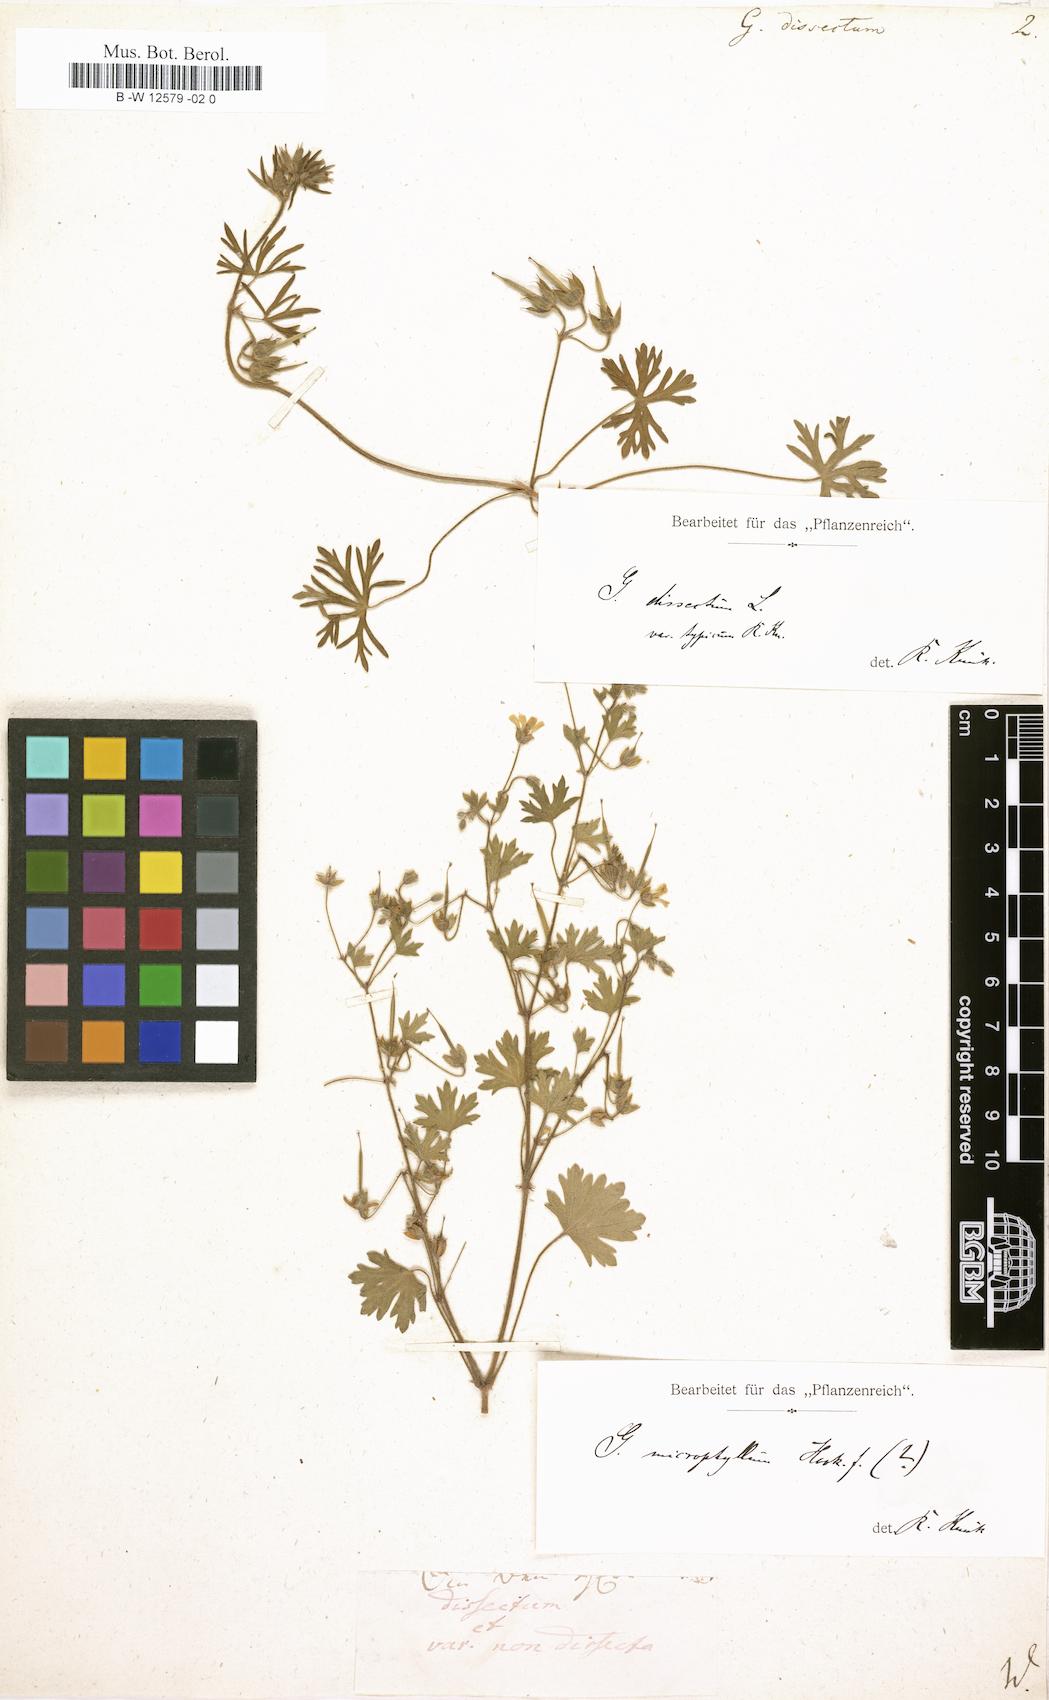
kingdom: Plantae
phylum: Tracheophyta
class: Magnoliopsida
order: Geraniales
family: Geraniaceae
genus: Geranium
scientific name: Geranium dissectum
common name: Cut-leaved crane's-bill
